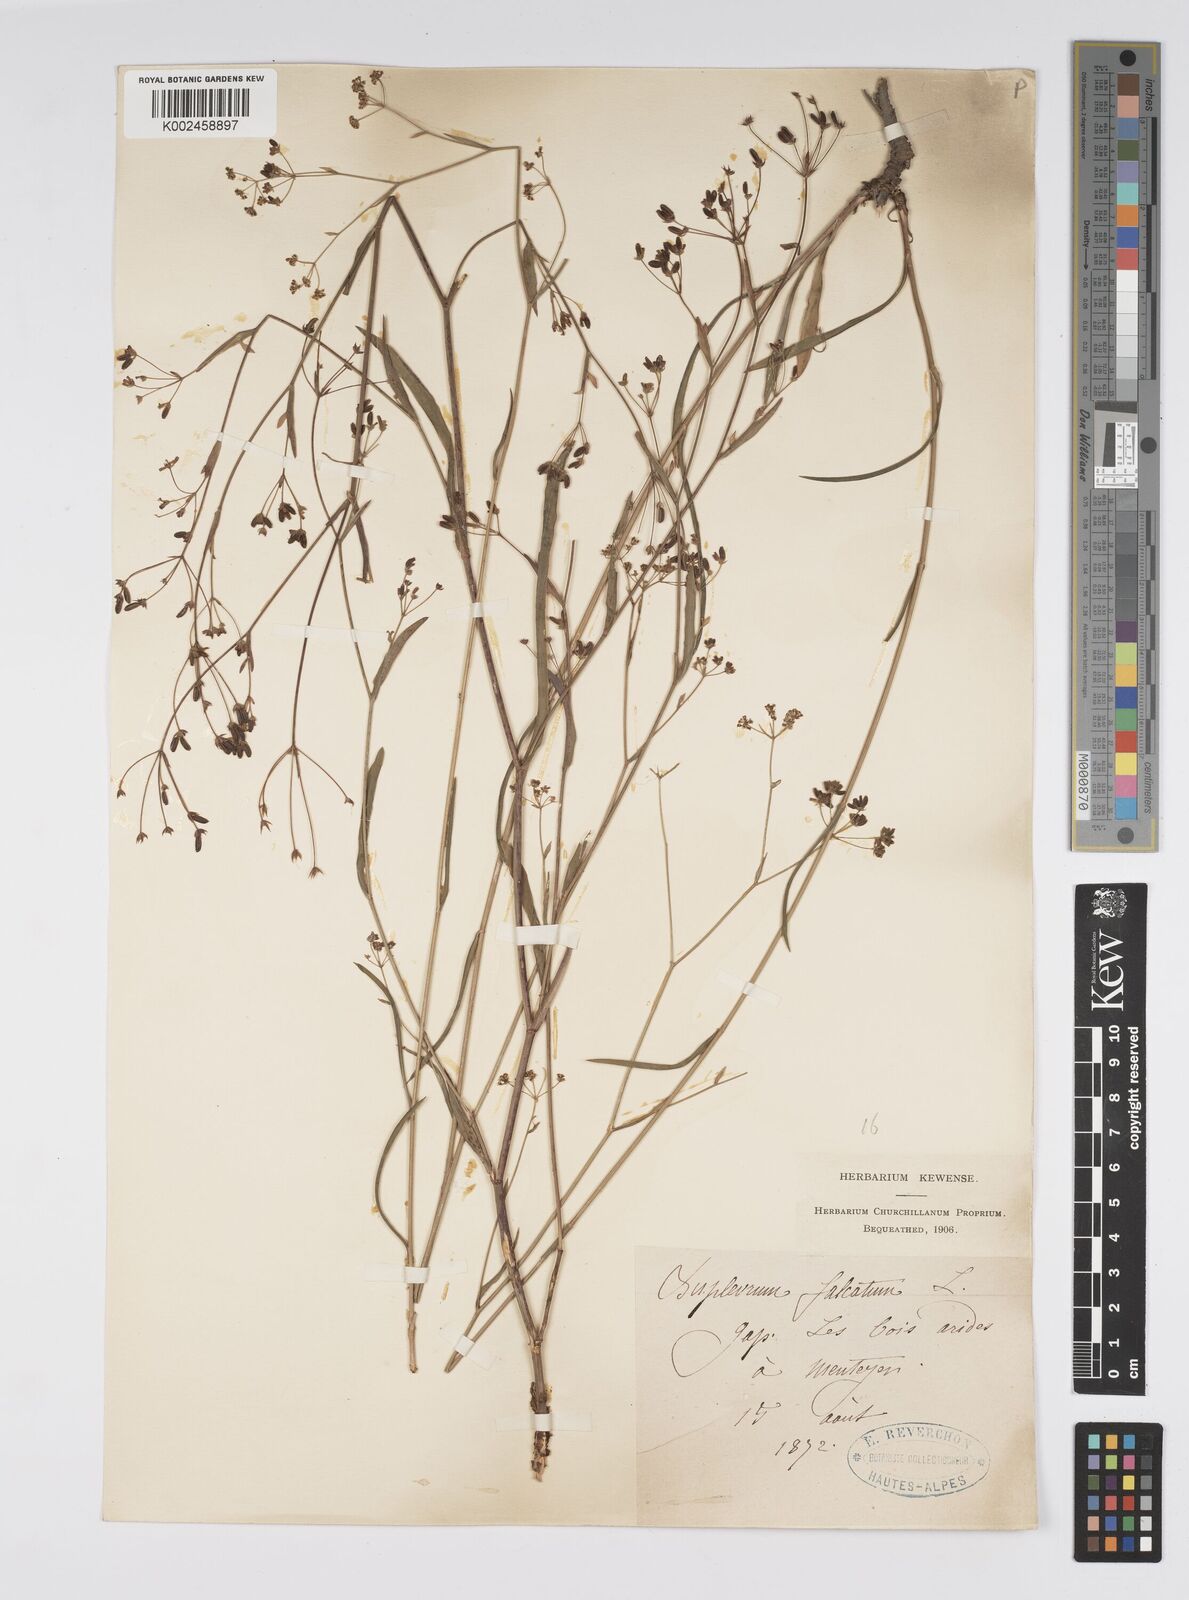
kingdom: Plantae
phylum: Tracheophyta
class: Magnoliopsida
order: Apiales
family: Apiaceae
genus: Bupleurum
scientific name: Bupleurum falcatum
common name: Sickle-leaved hare's-ear
